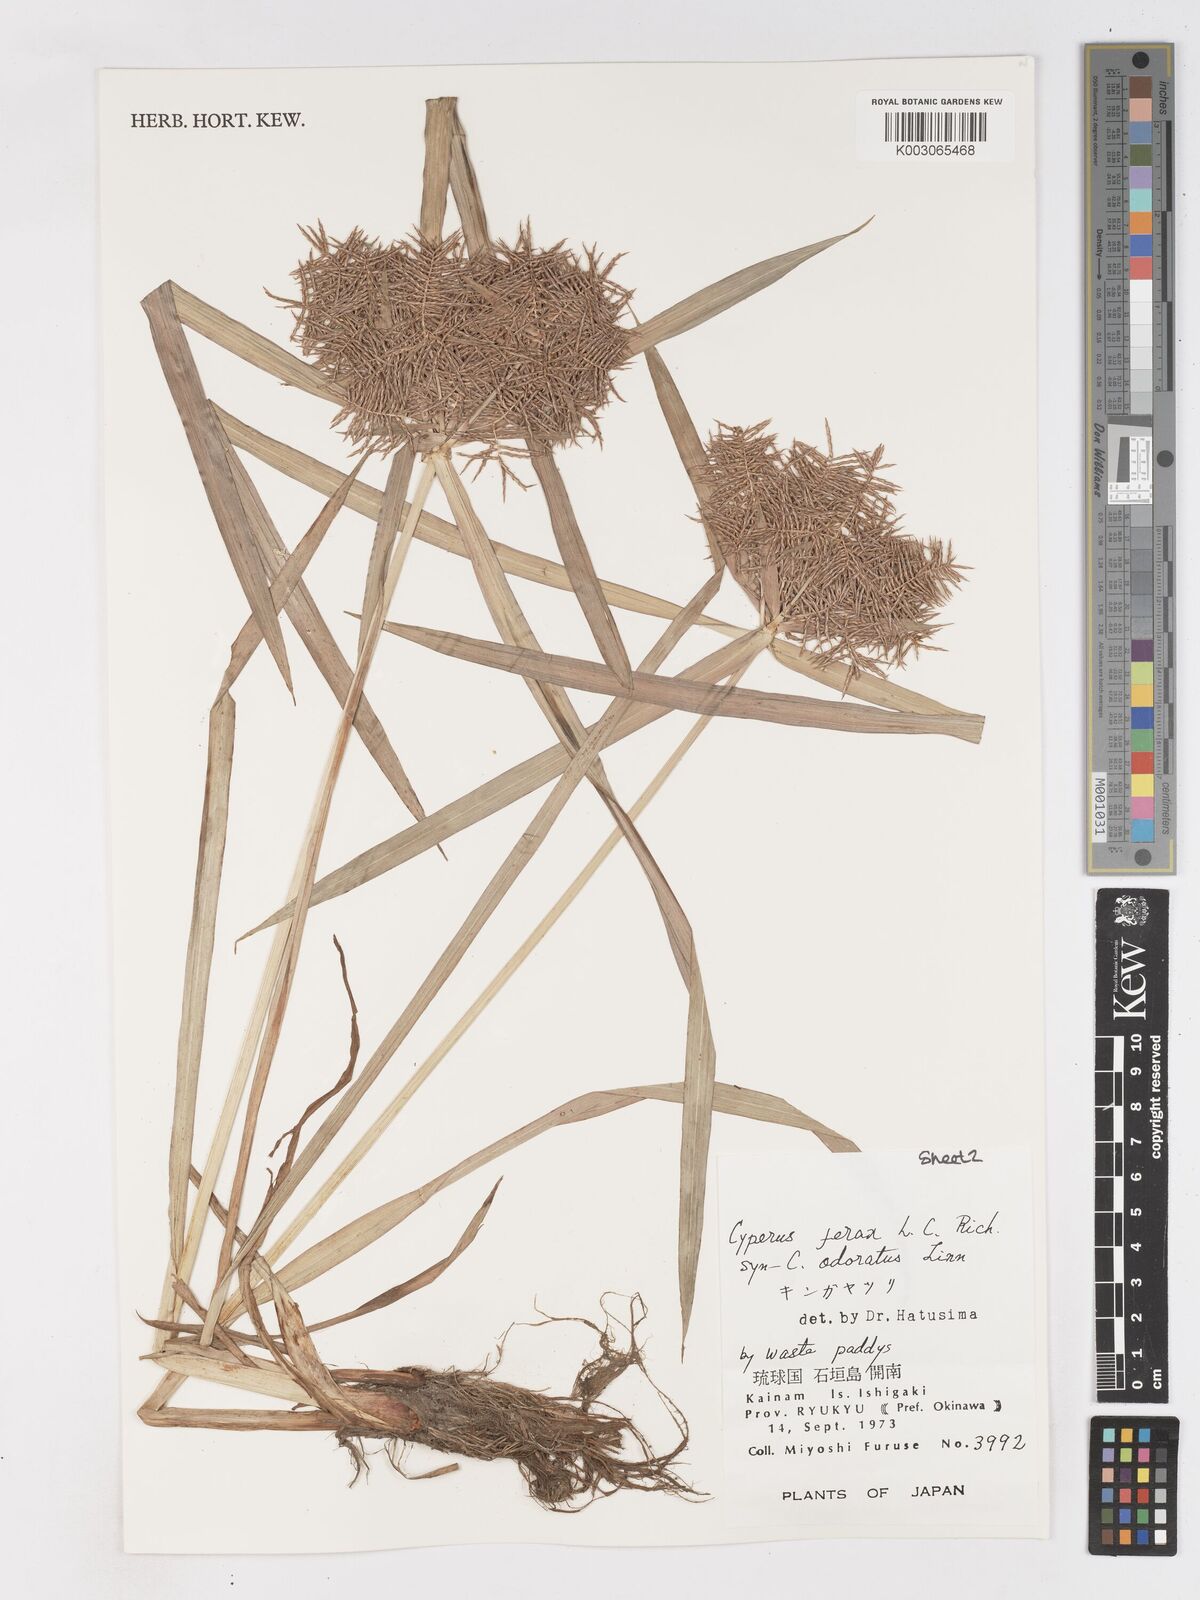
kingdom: Plantae
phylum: Tracheophyta
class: Liliopsida
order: Poales
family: Cyperaceae
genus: Cyperus
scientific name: Cyperus odoratus
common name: Fragrant flatsedge
